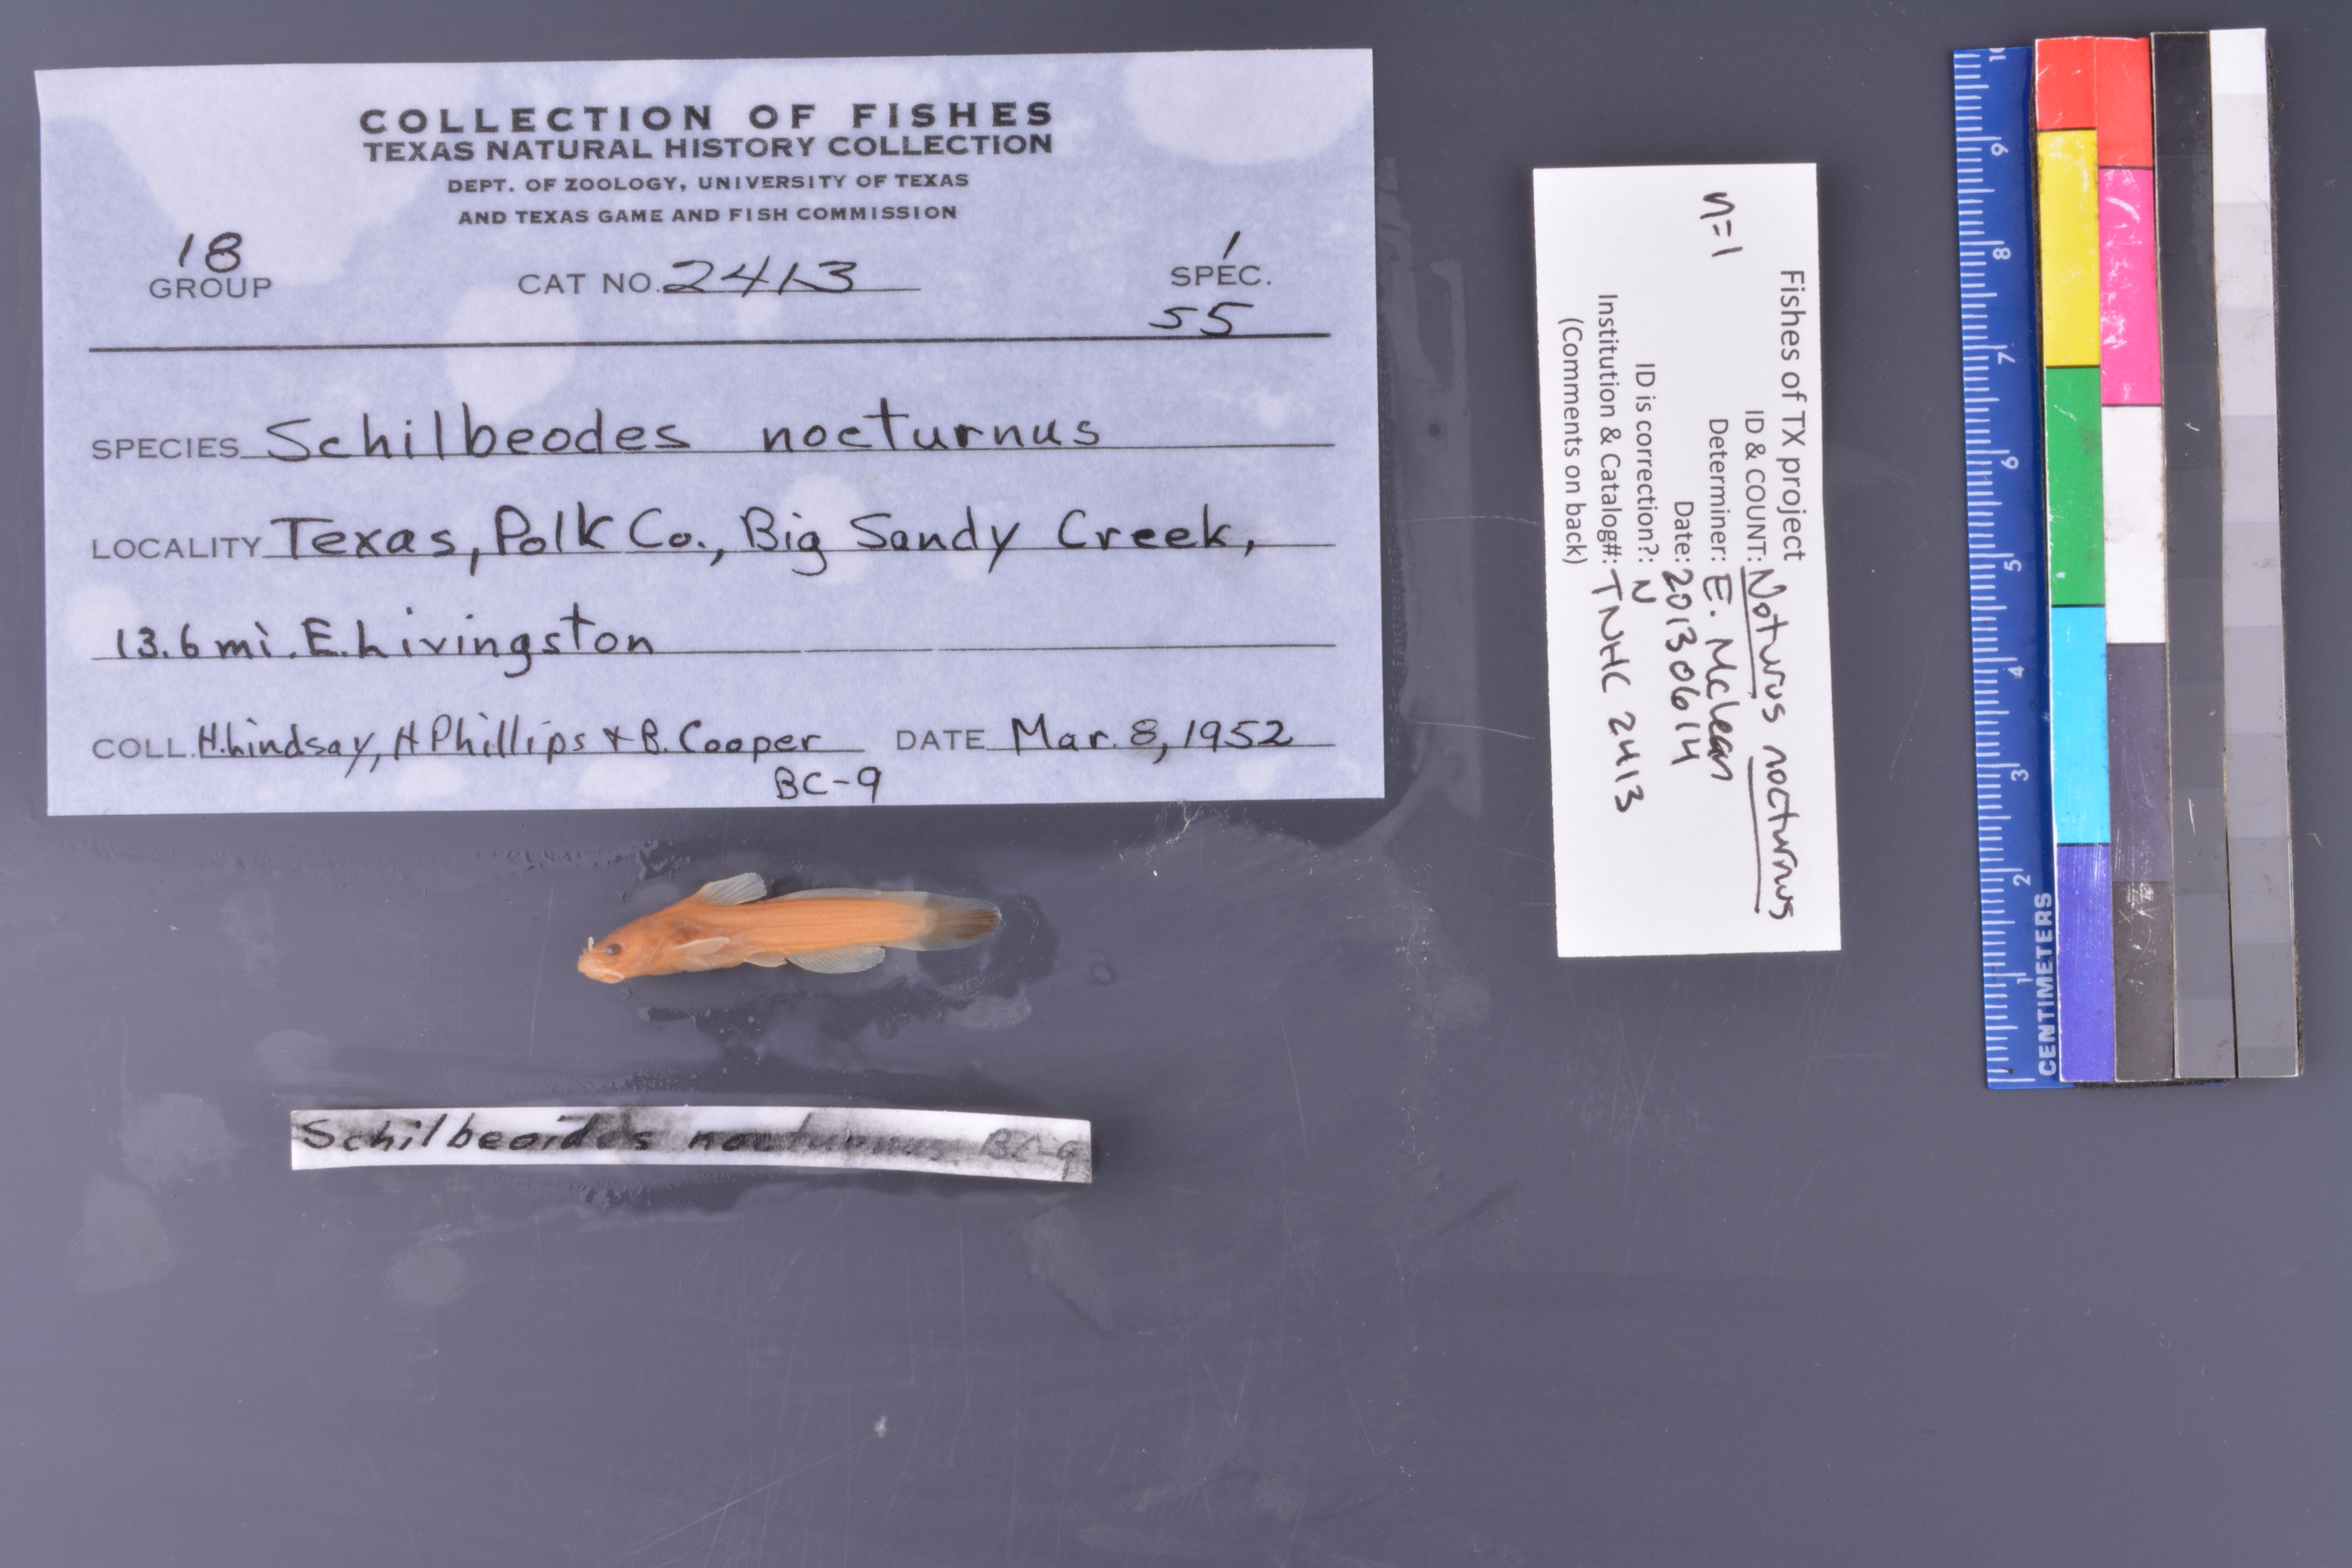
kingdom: Animalia
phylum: Chordata
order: Siluriformes
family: Ictaluridae
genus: Noturus
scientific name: Noturus nocturnus
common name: Freckled madtom
